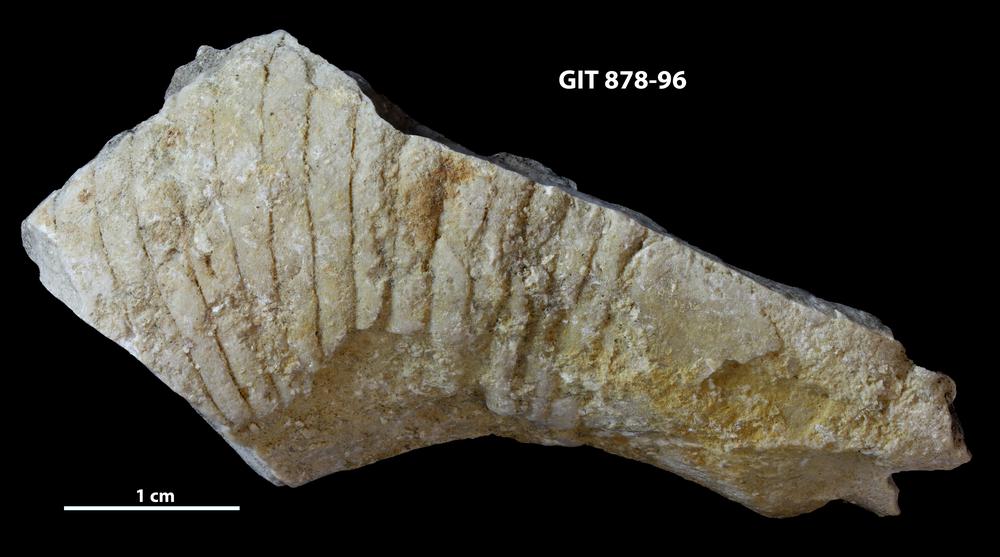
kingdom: Animalia
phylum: Mollusca
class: Cephalopoda
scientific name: Cephalopoda
